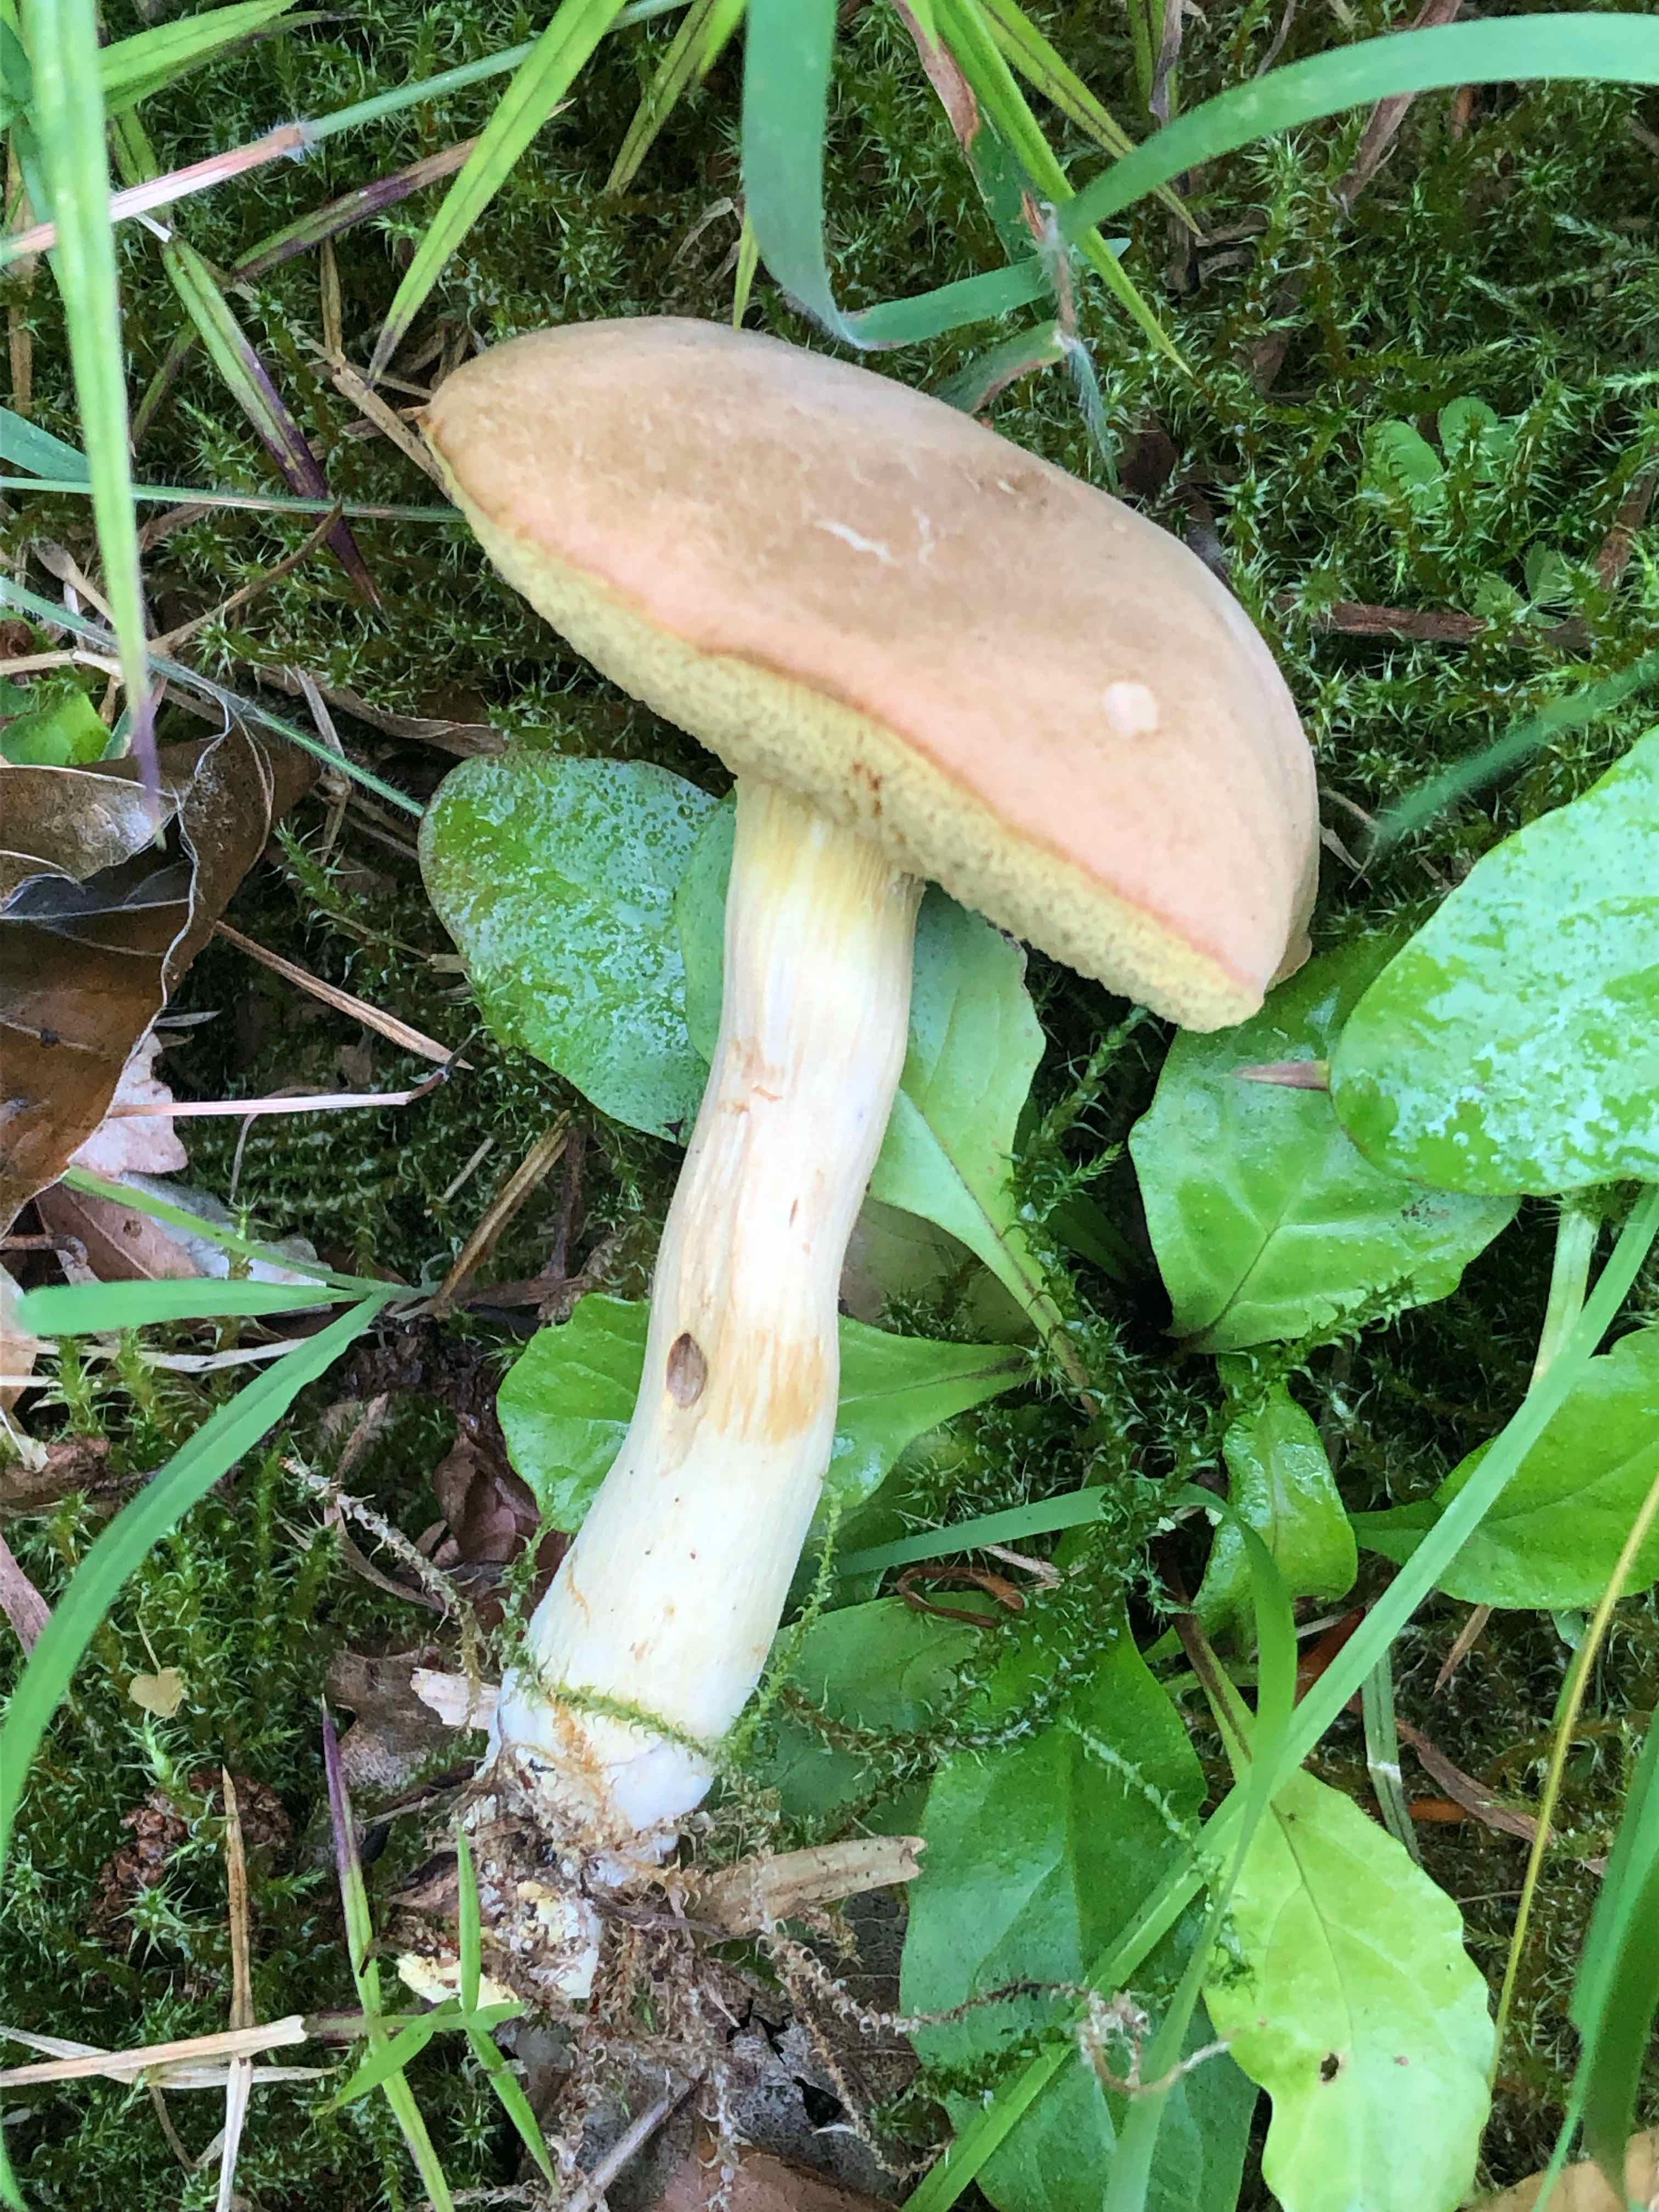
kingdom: Fungi
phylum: Basidiomycota
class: Agaricomycetes
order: Boletales
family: Boletaceae
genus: Hortiboletus
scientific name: Hortiboletus engelii
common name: fersken-rørhat
